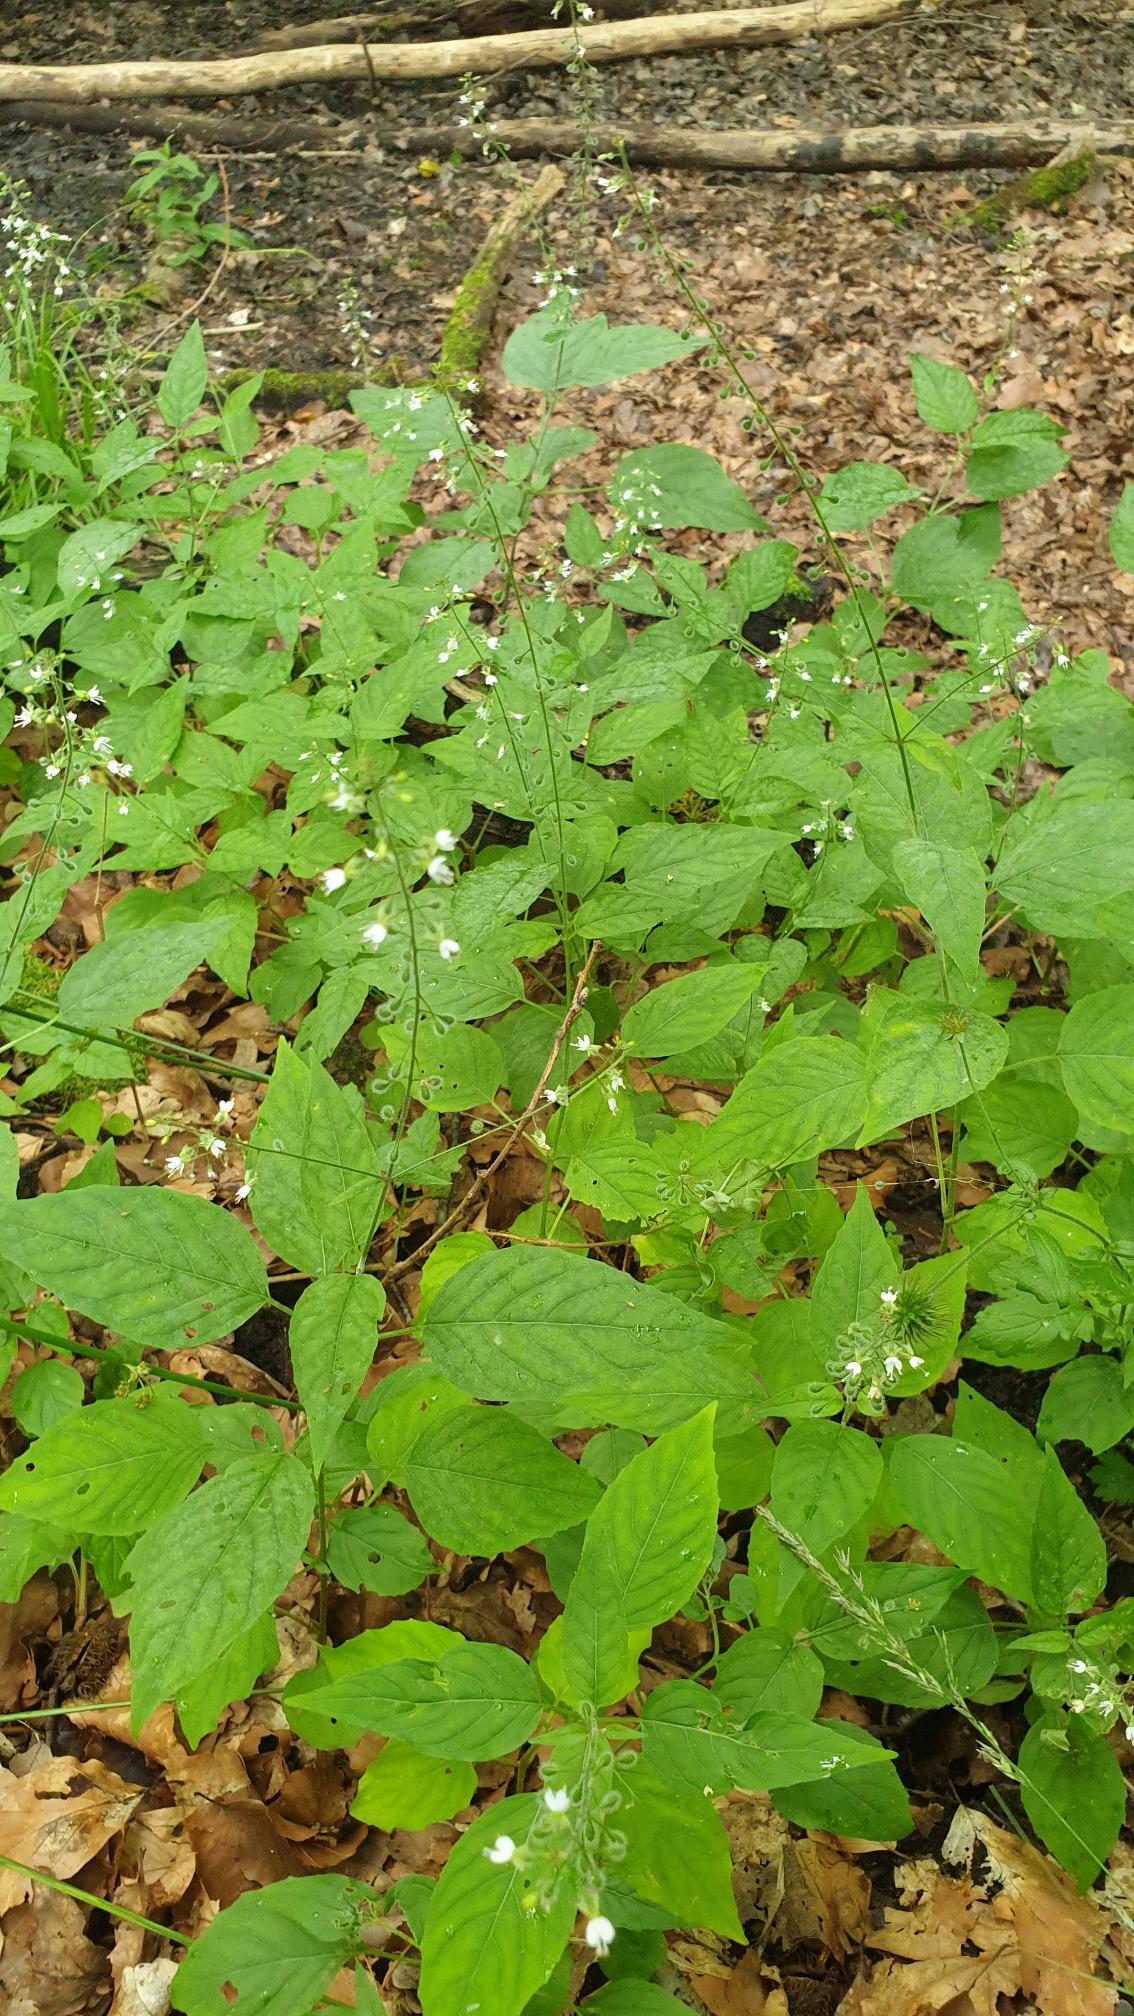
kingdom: Plantae
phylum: Tracheophyta
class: Magnoliopsida
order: Myrtales
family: Onagraceae
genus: Circaea
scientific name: Circaea lutetiana
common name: Dunet steffensurt
